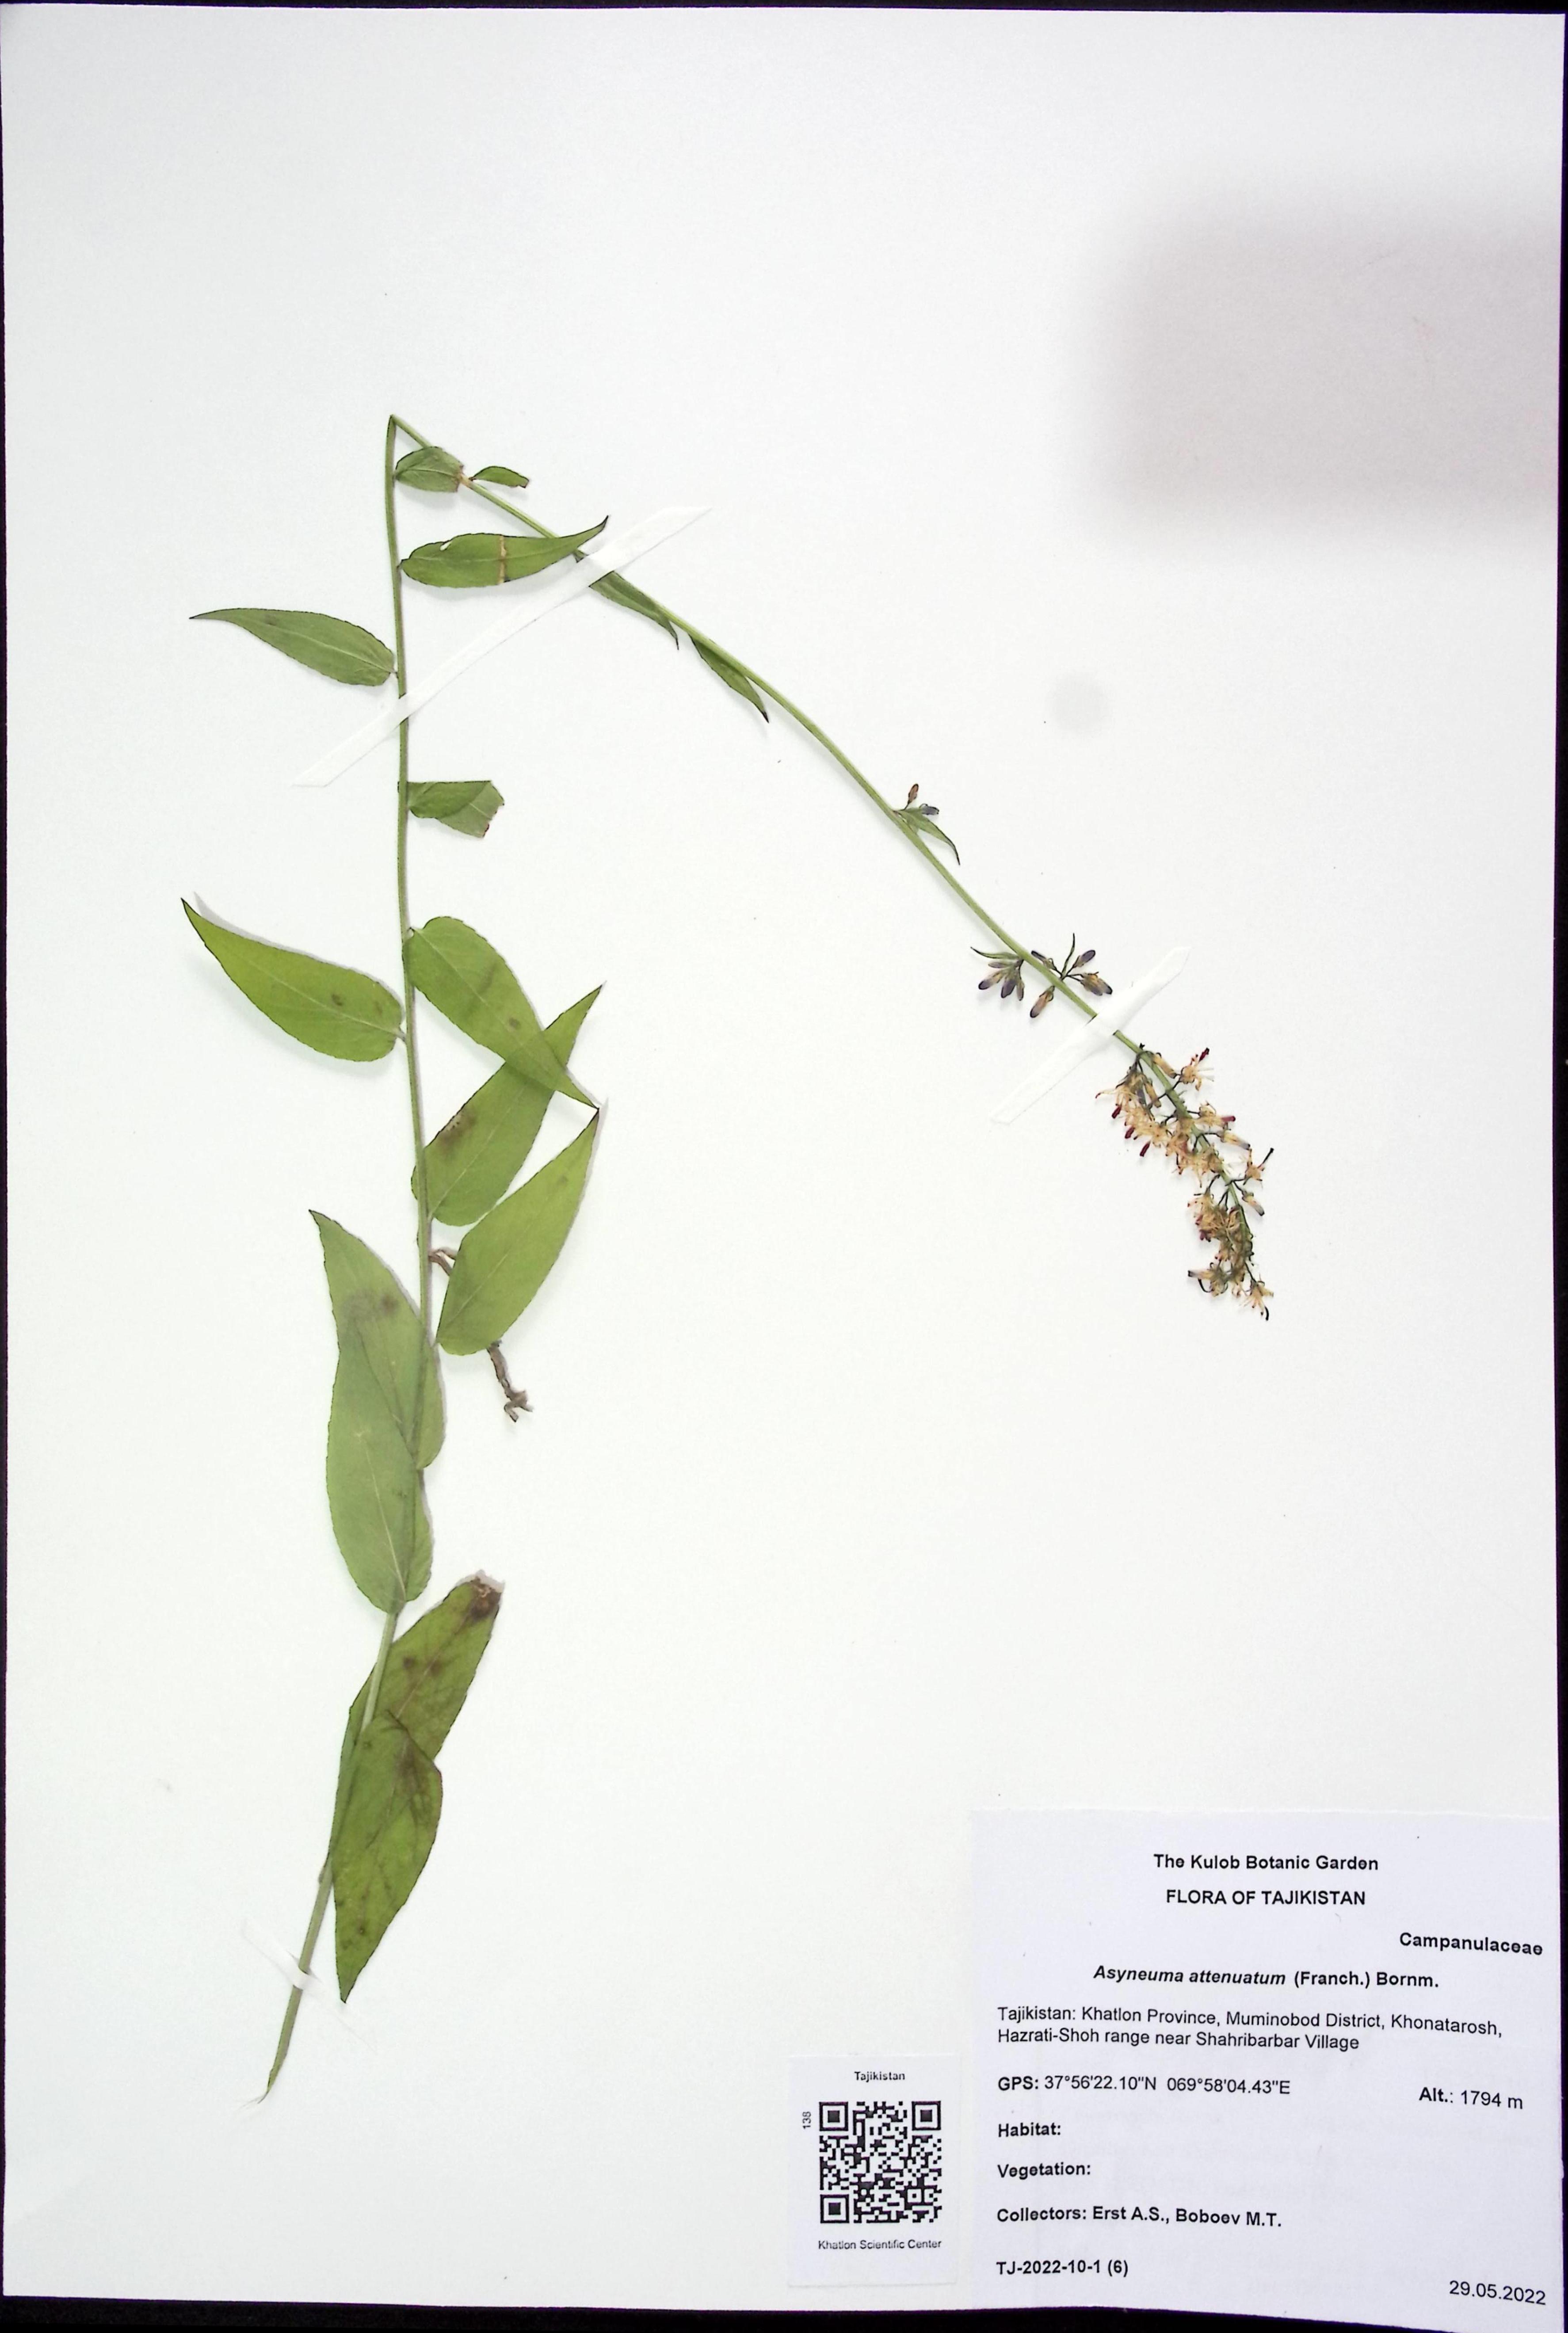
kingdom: Plantae
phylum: Tracheophyta
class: Magnoliopsida
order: Asterales
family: Campanulaceae
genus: Asyneuma
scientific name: Asyneuma argutum
